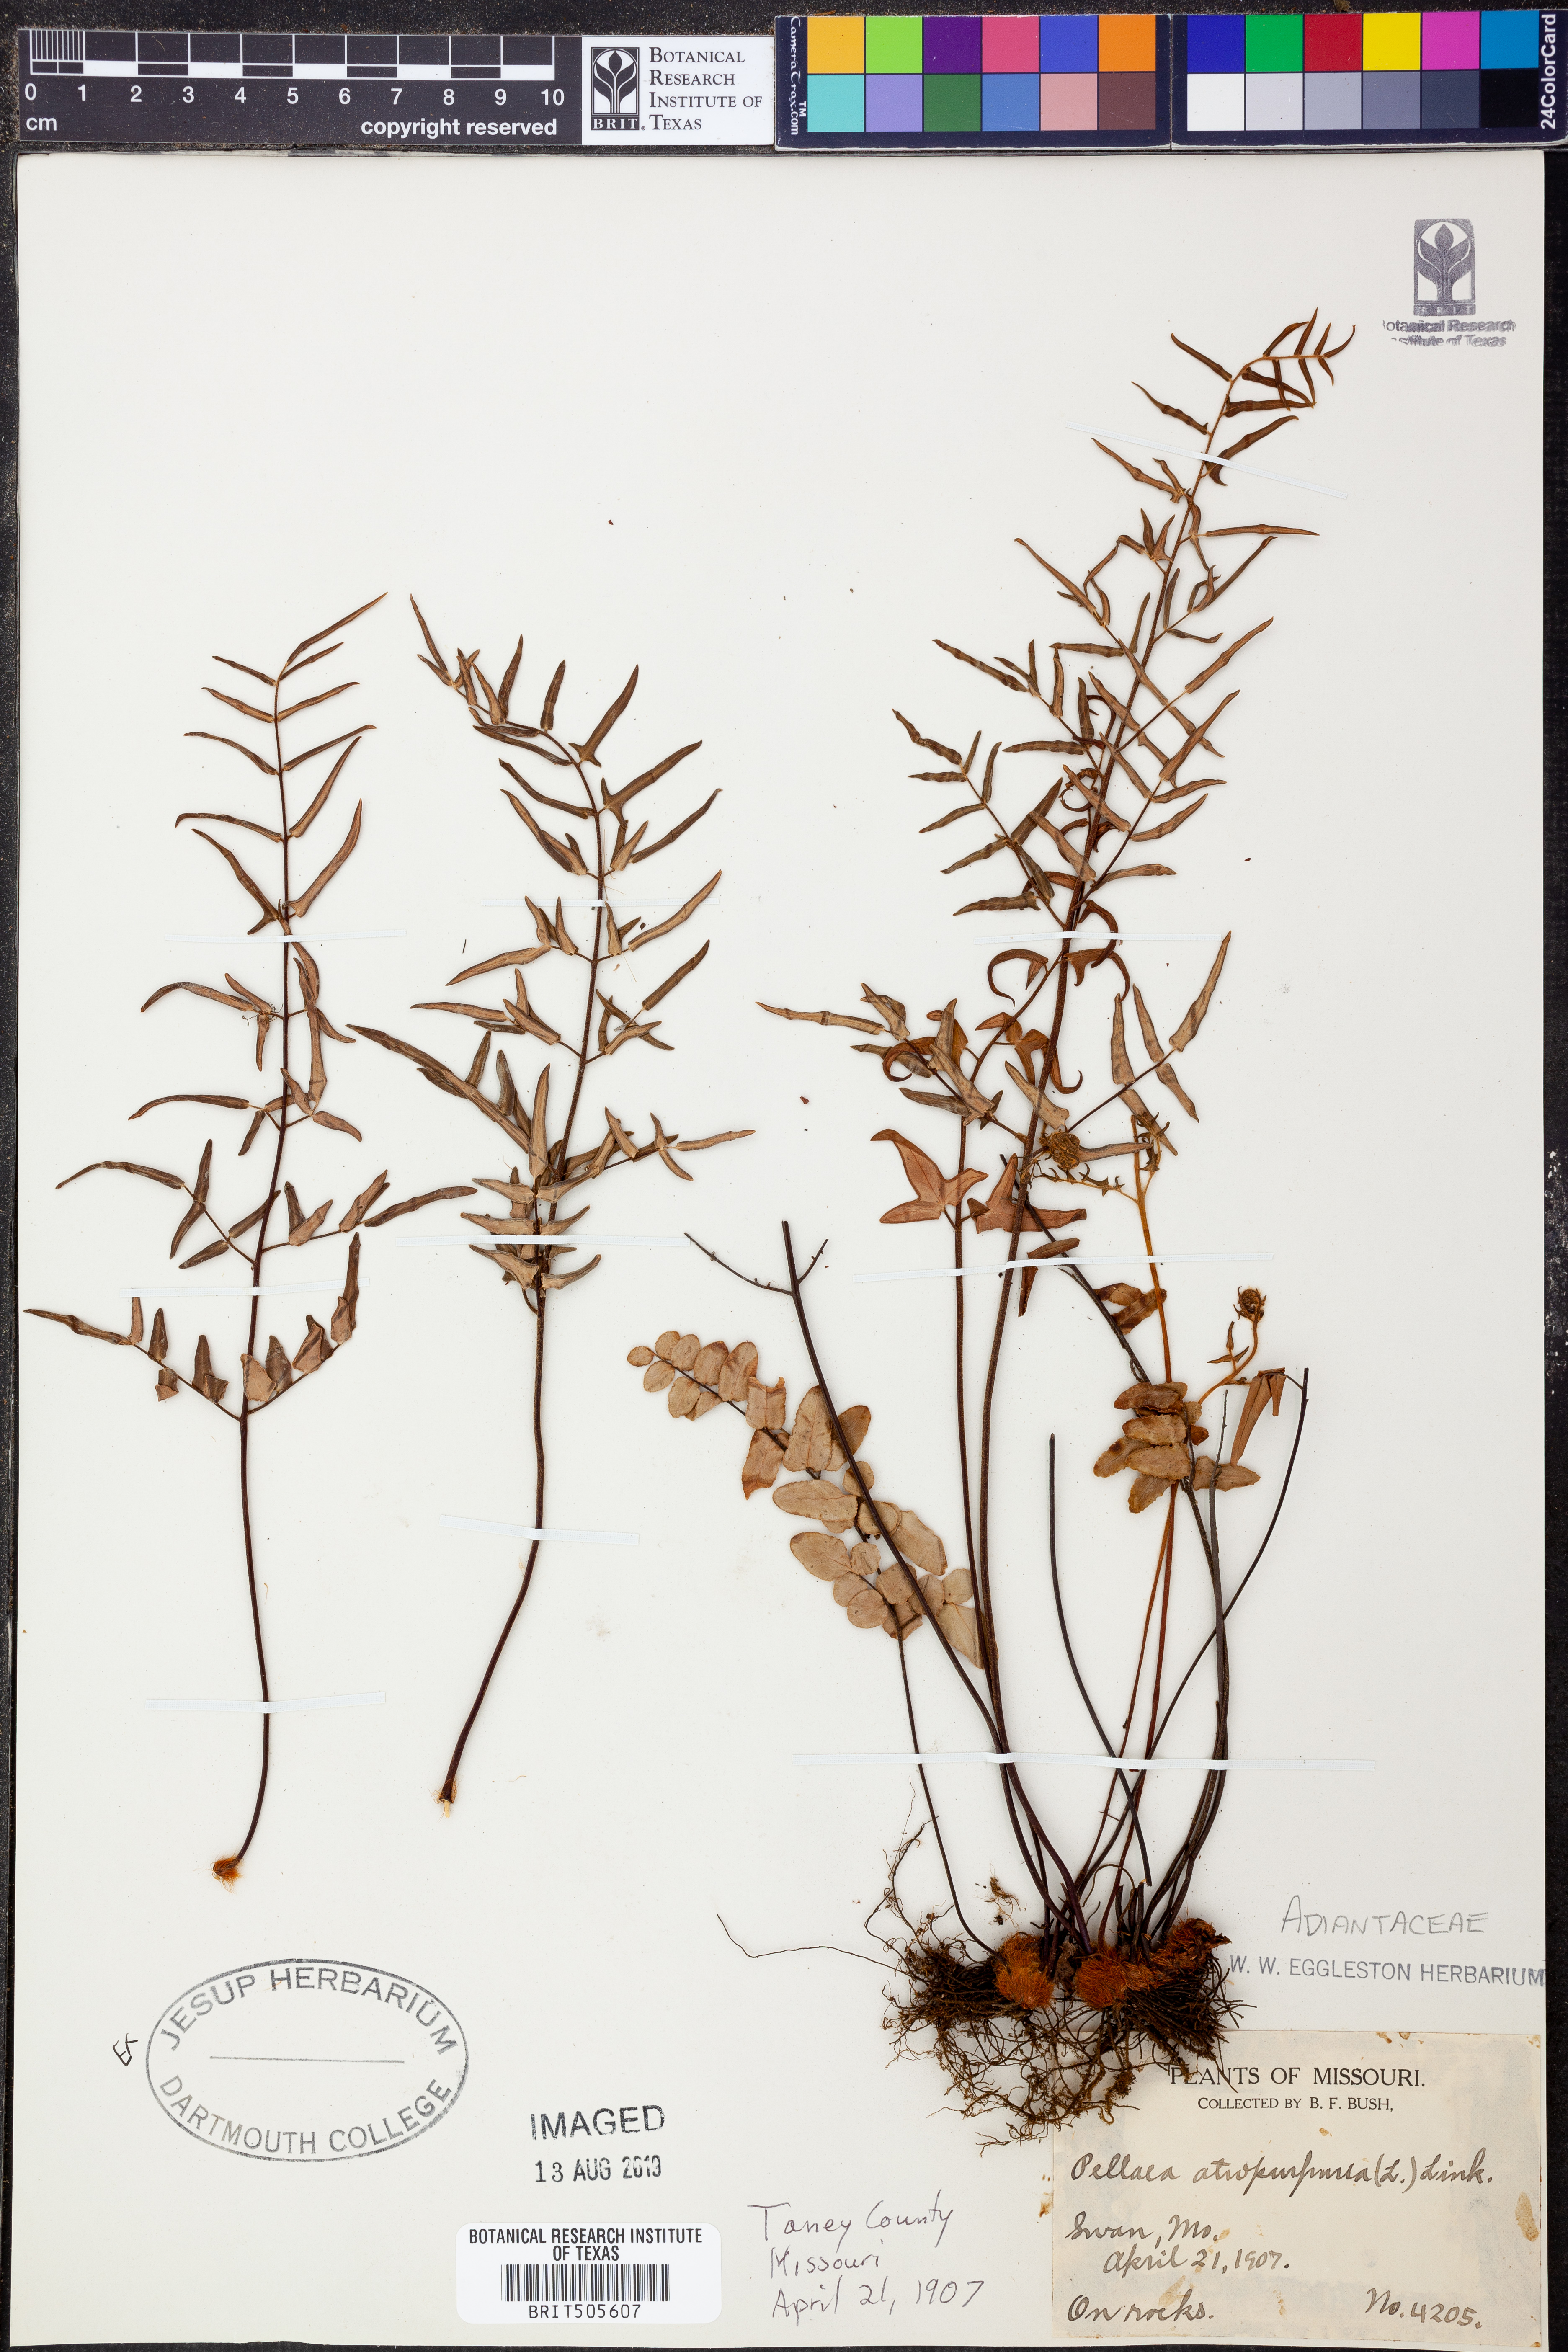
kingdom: Plantae
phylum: Tracheophyta
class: Polypodiopsida
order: Polypodiales
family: Pteridaceae
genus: Pellaea
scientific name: Pellaea atropurpurea
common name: Hairy cliffbrake
